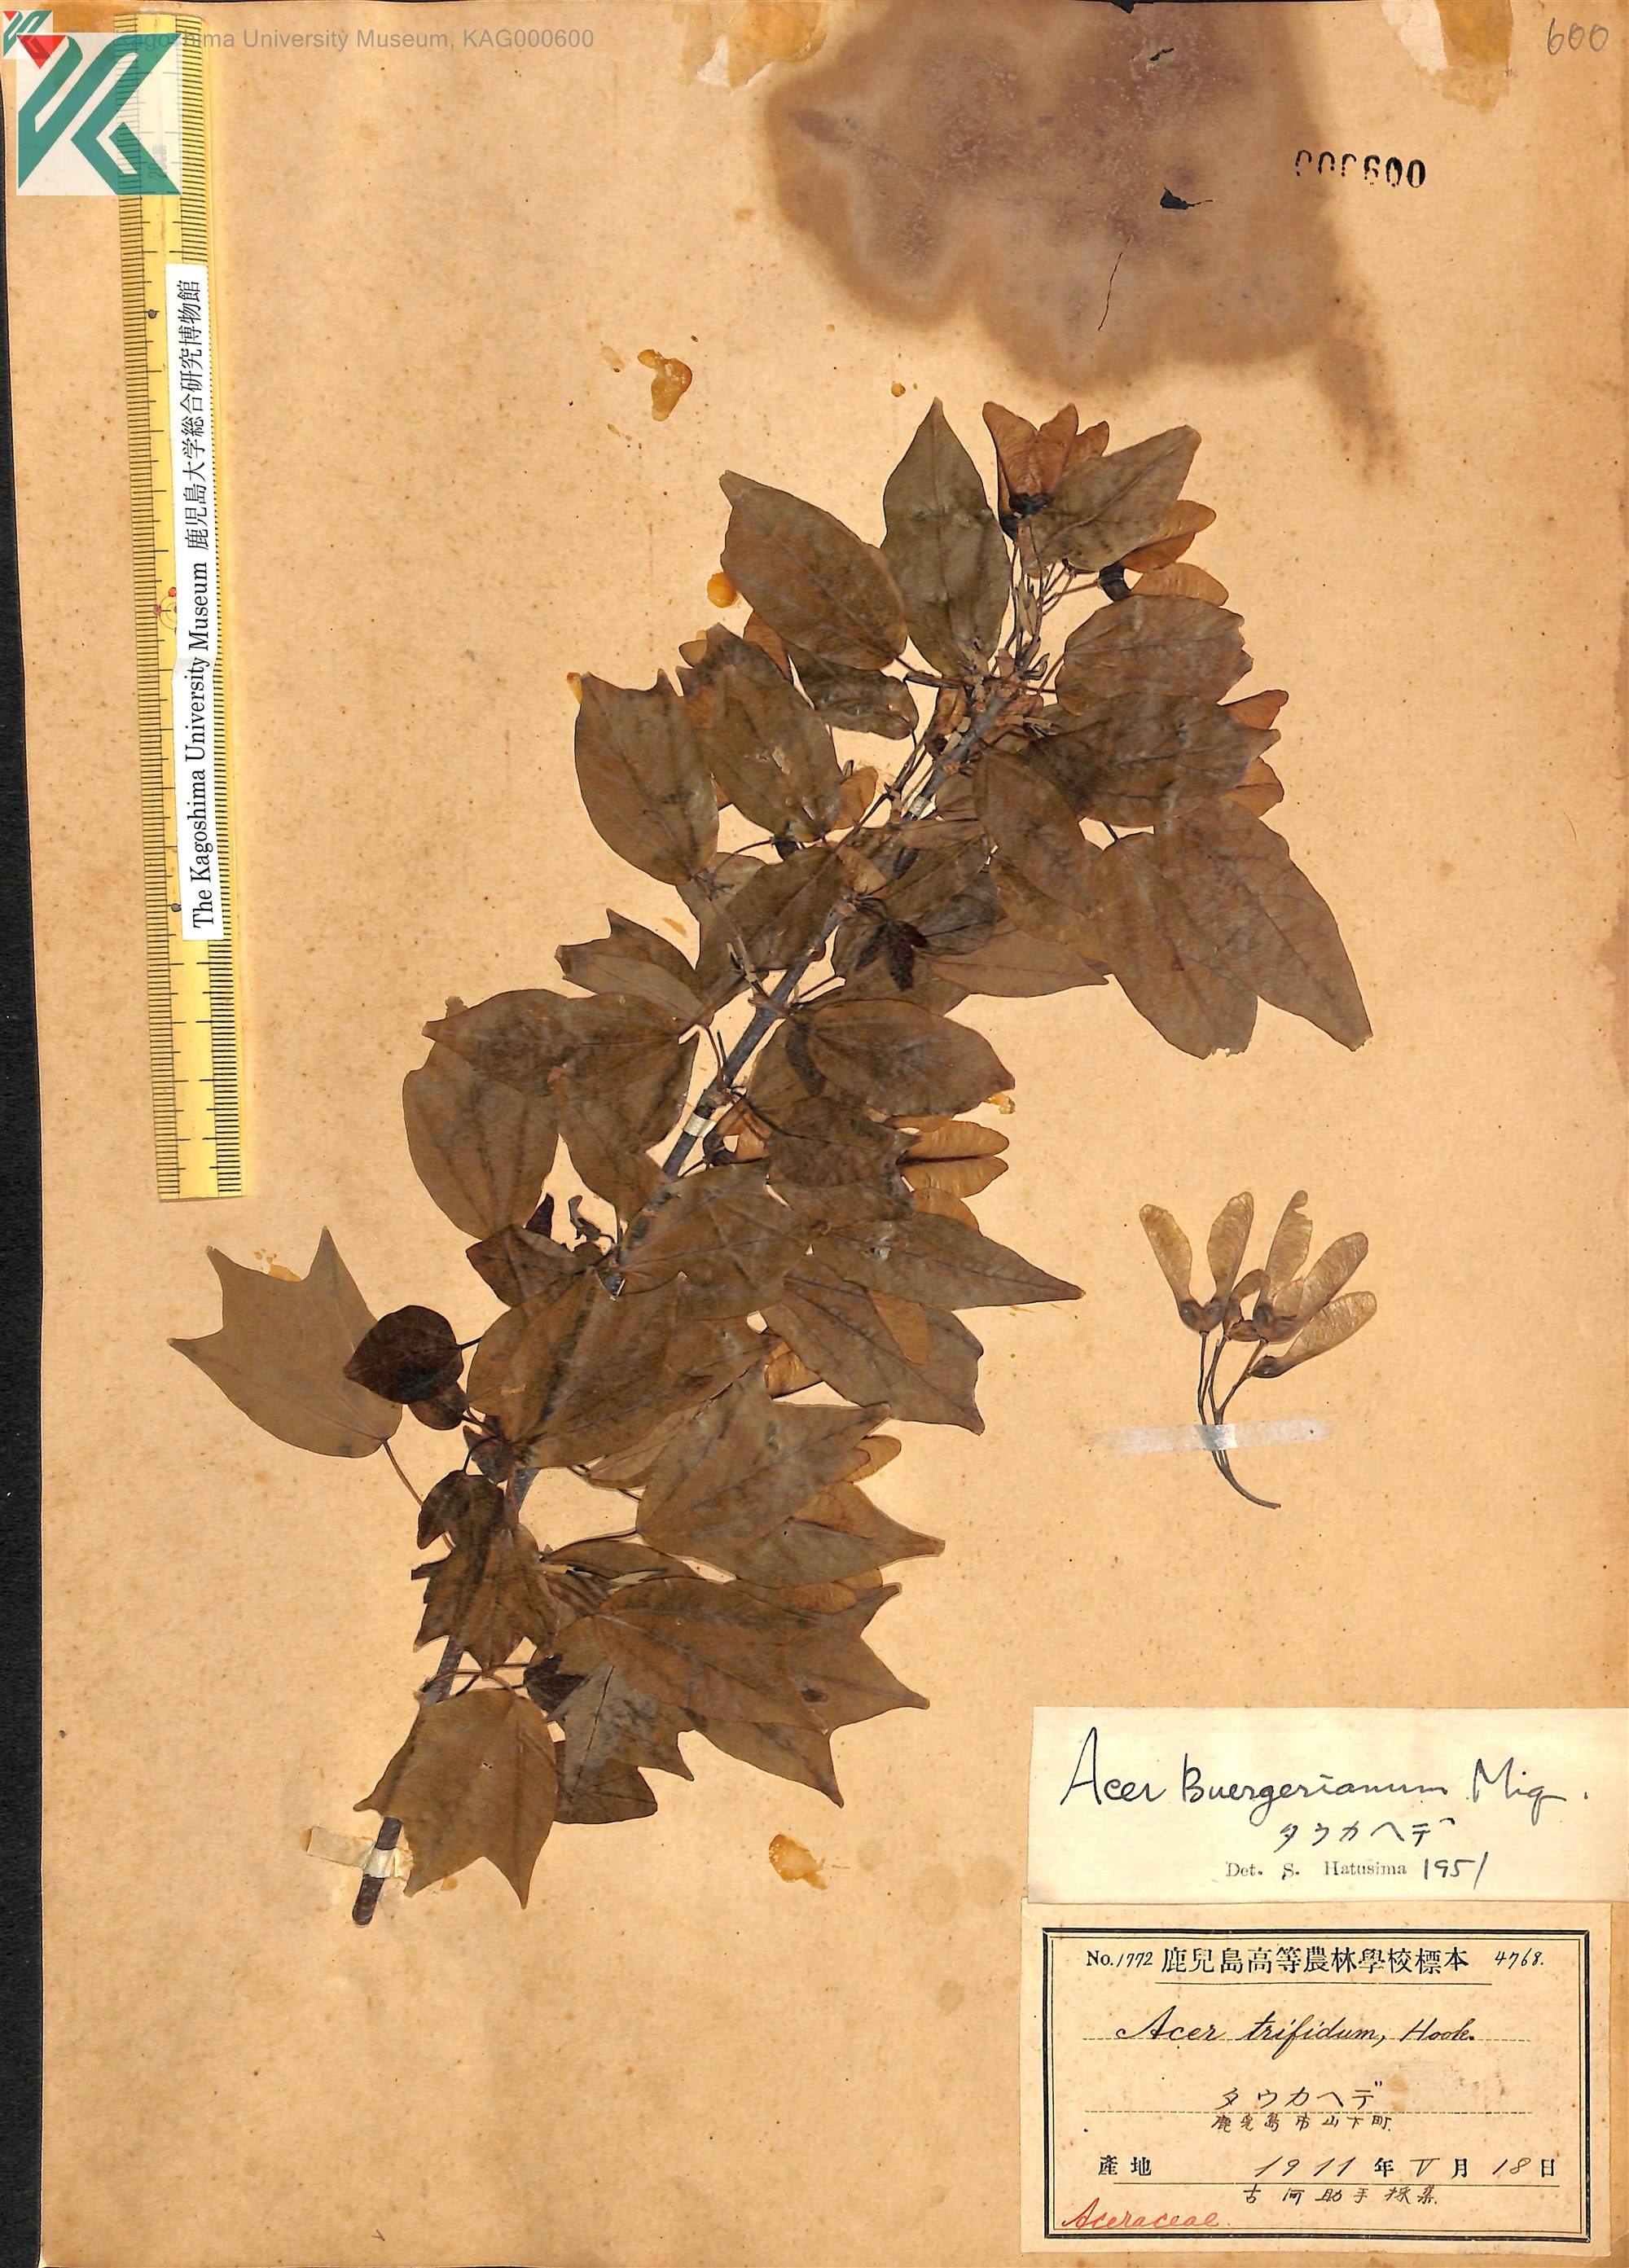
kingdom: Plantae
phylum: Tracheophyta
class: Magnoliopsida
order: Sapindales
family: Sapindaceae
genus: Acer
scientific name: Acer buergerianum
